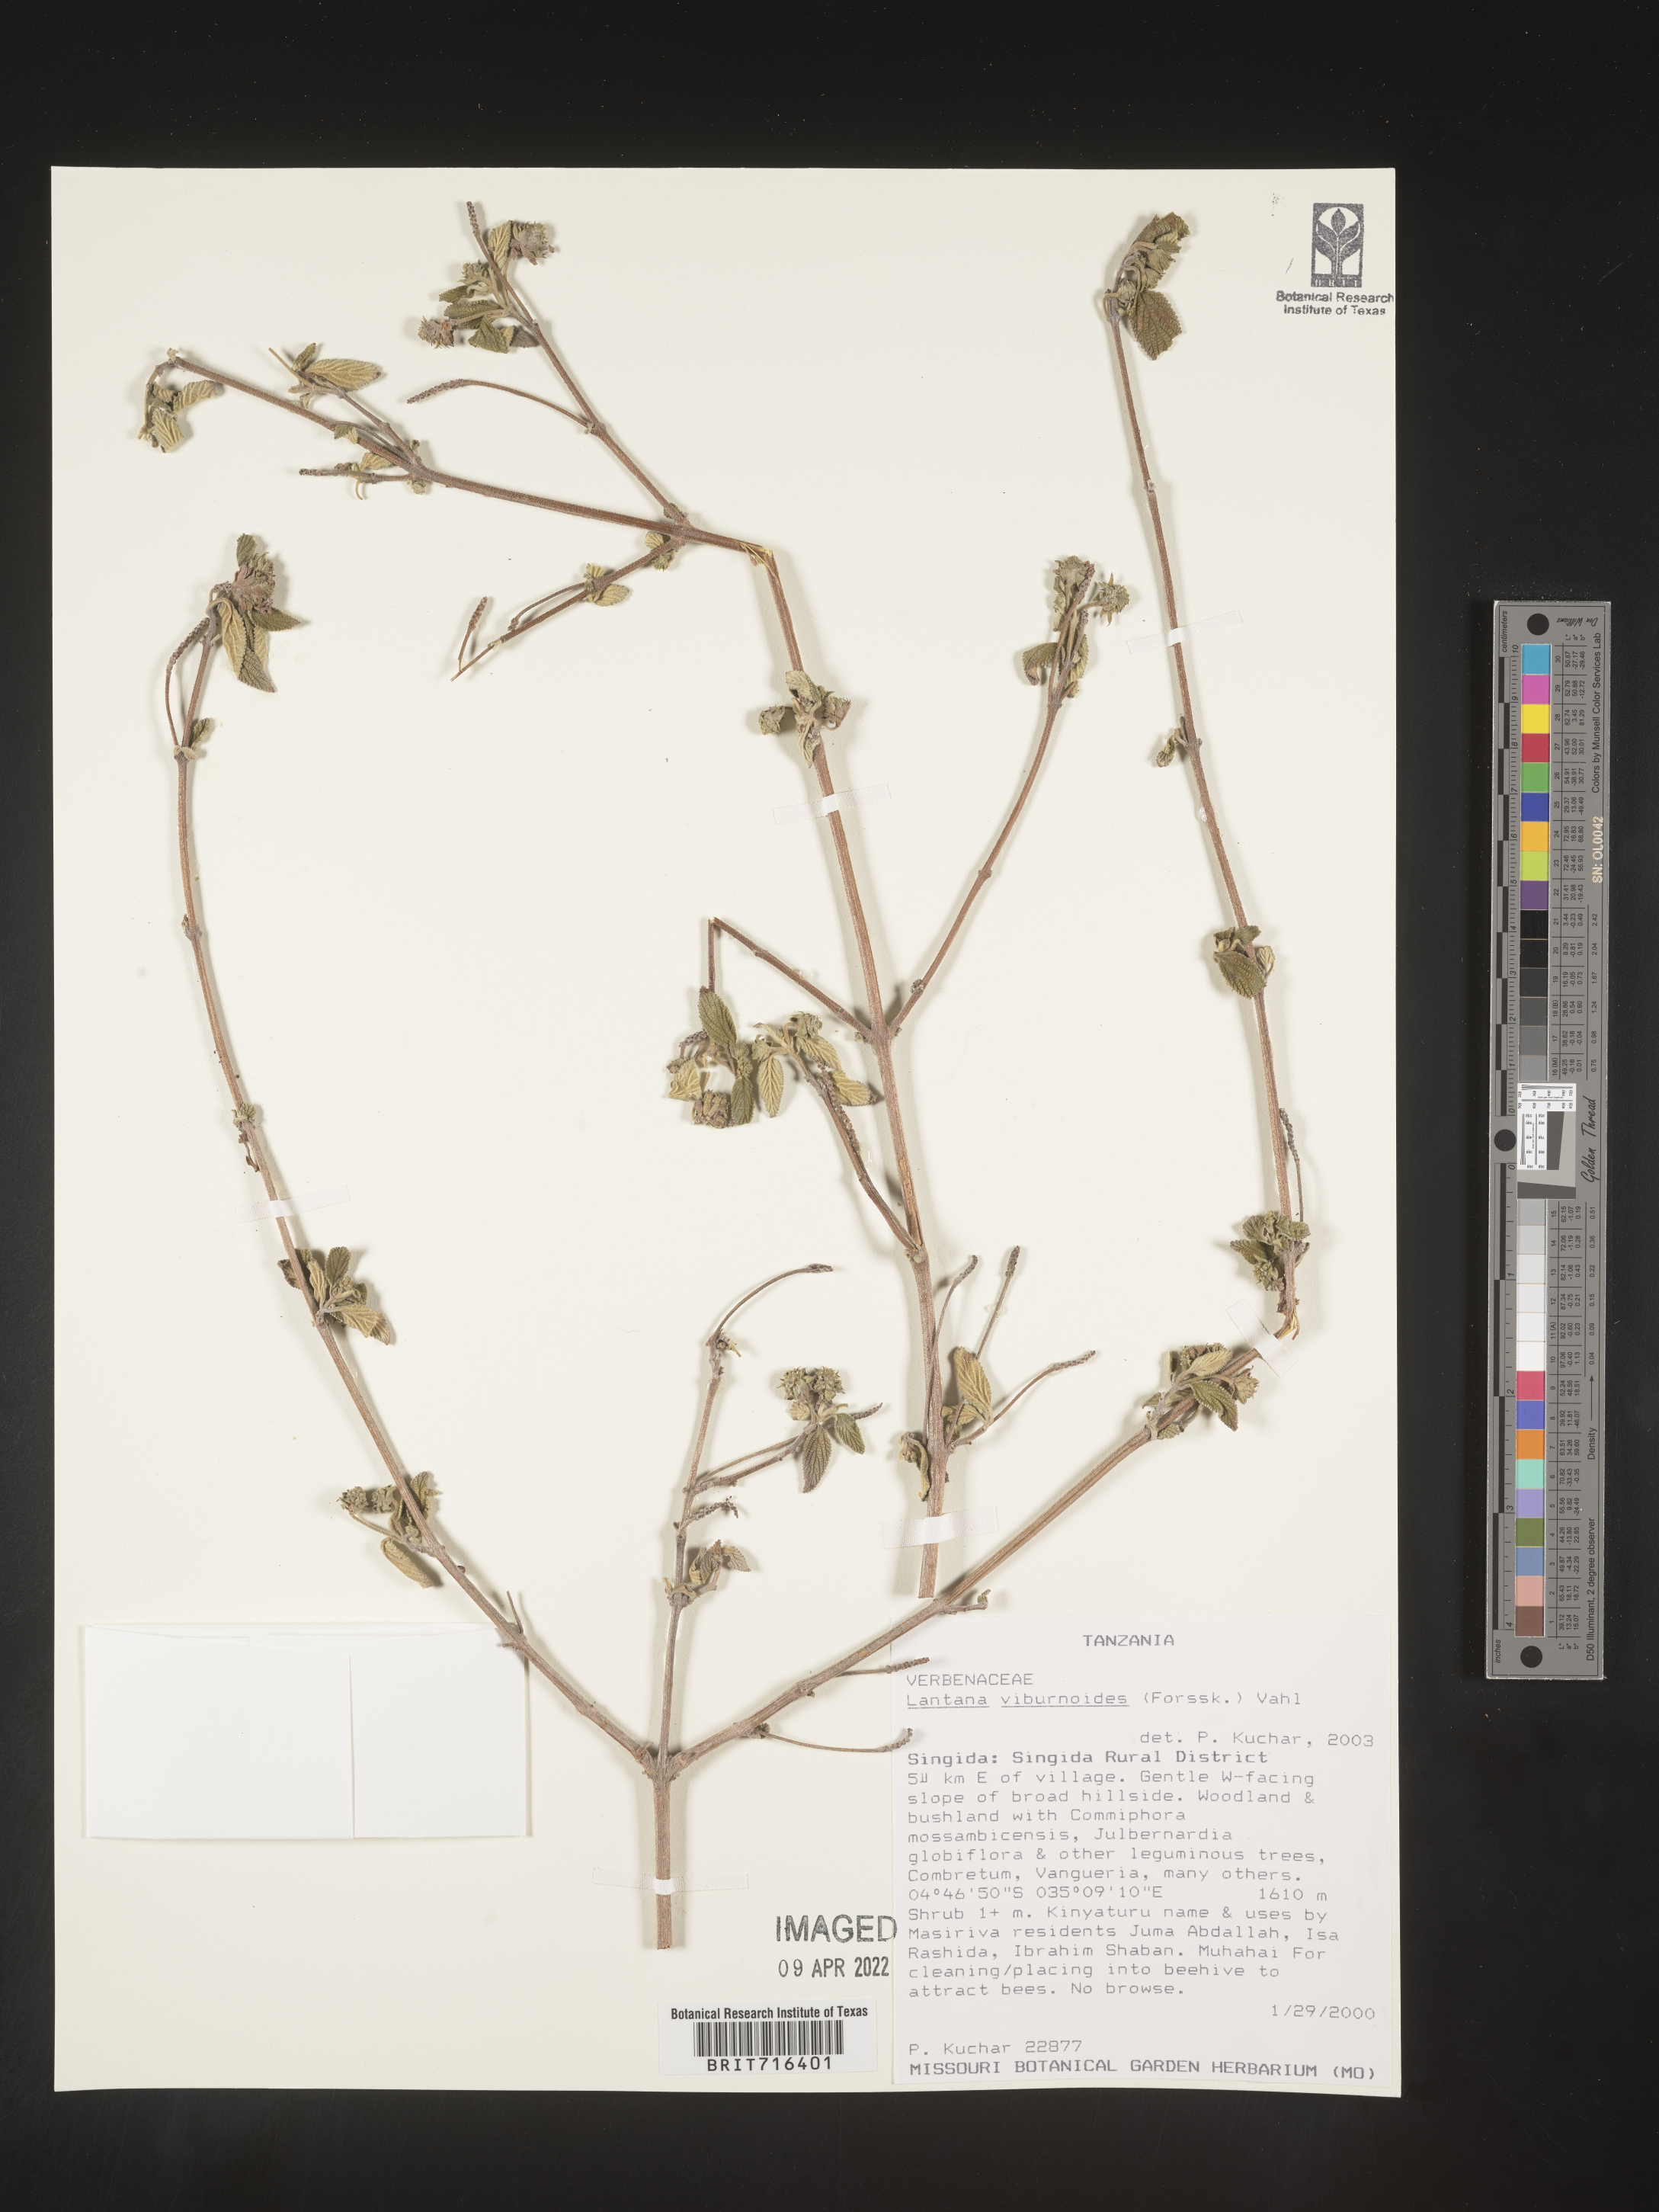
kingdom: Plantae
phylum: Tracheophyta
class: Magnoliopsida
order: Lamiales
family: Verbenaceae
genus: Lantana
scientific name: Lantana
